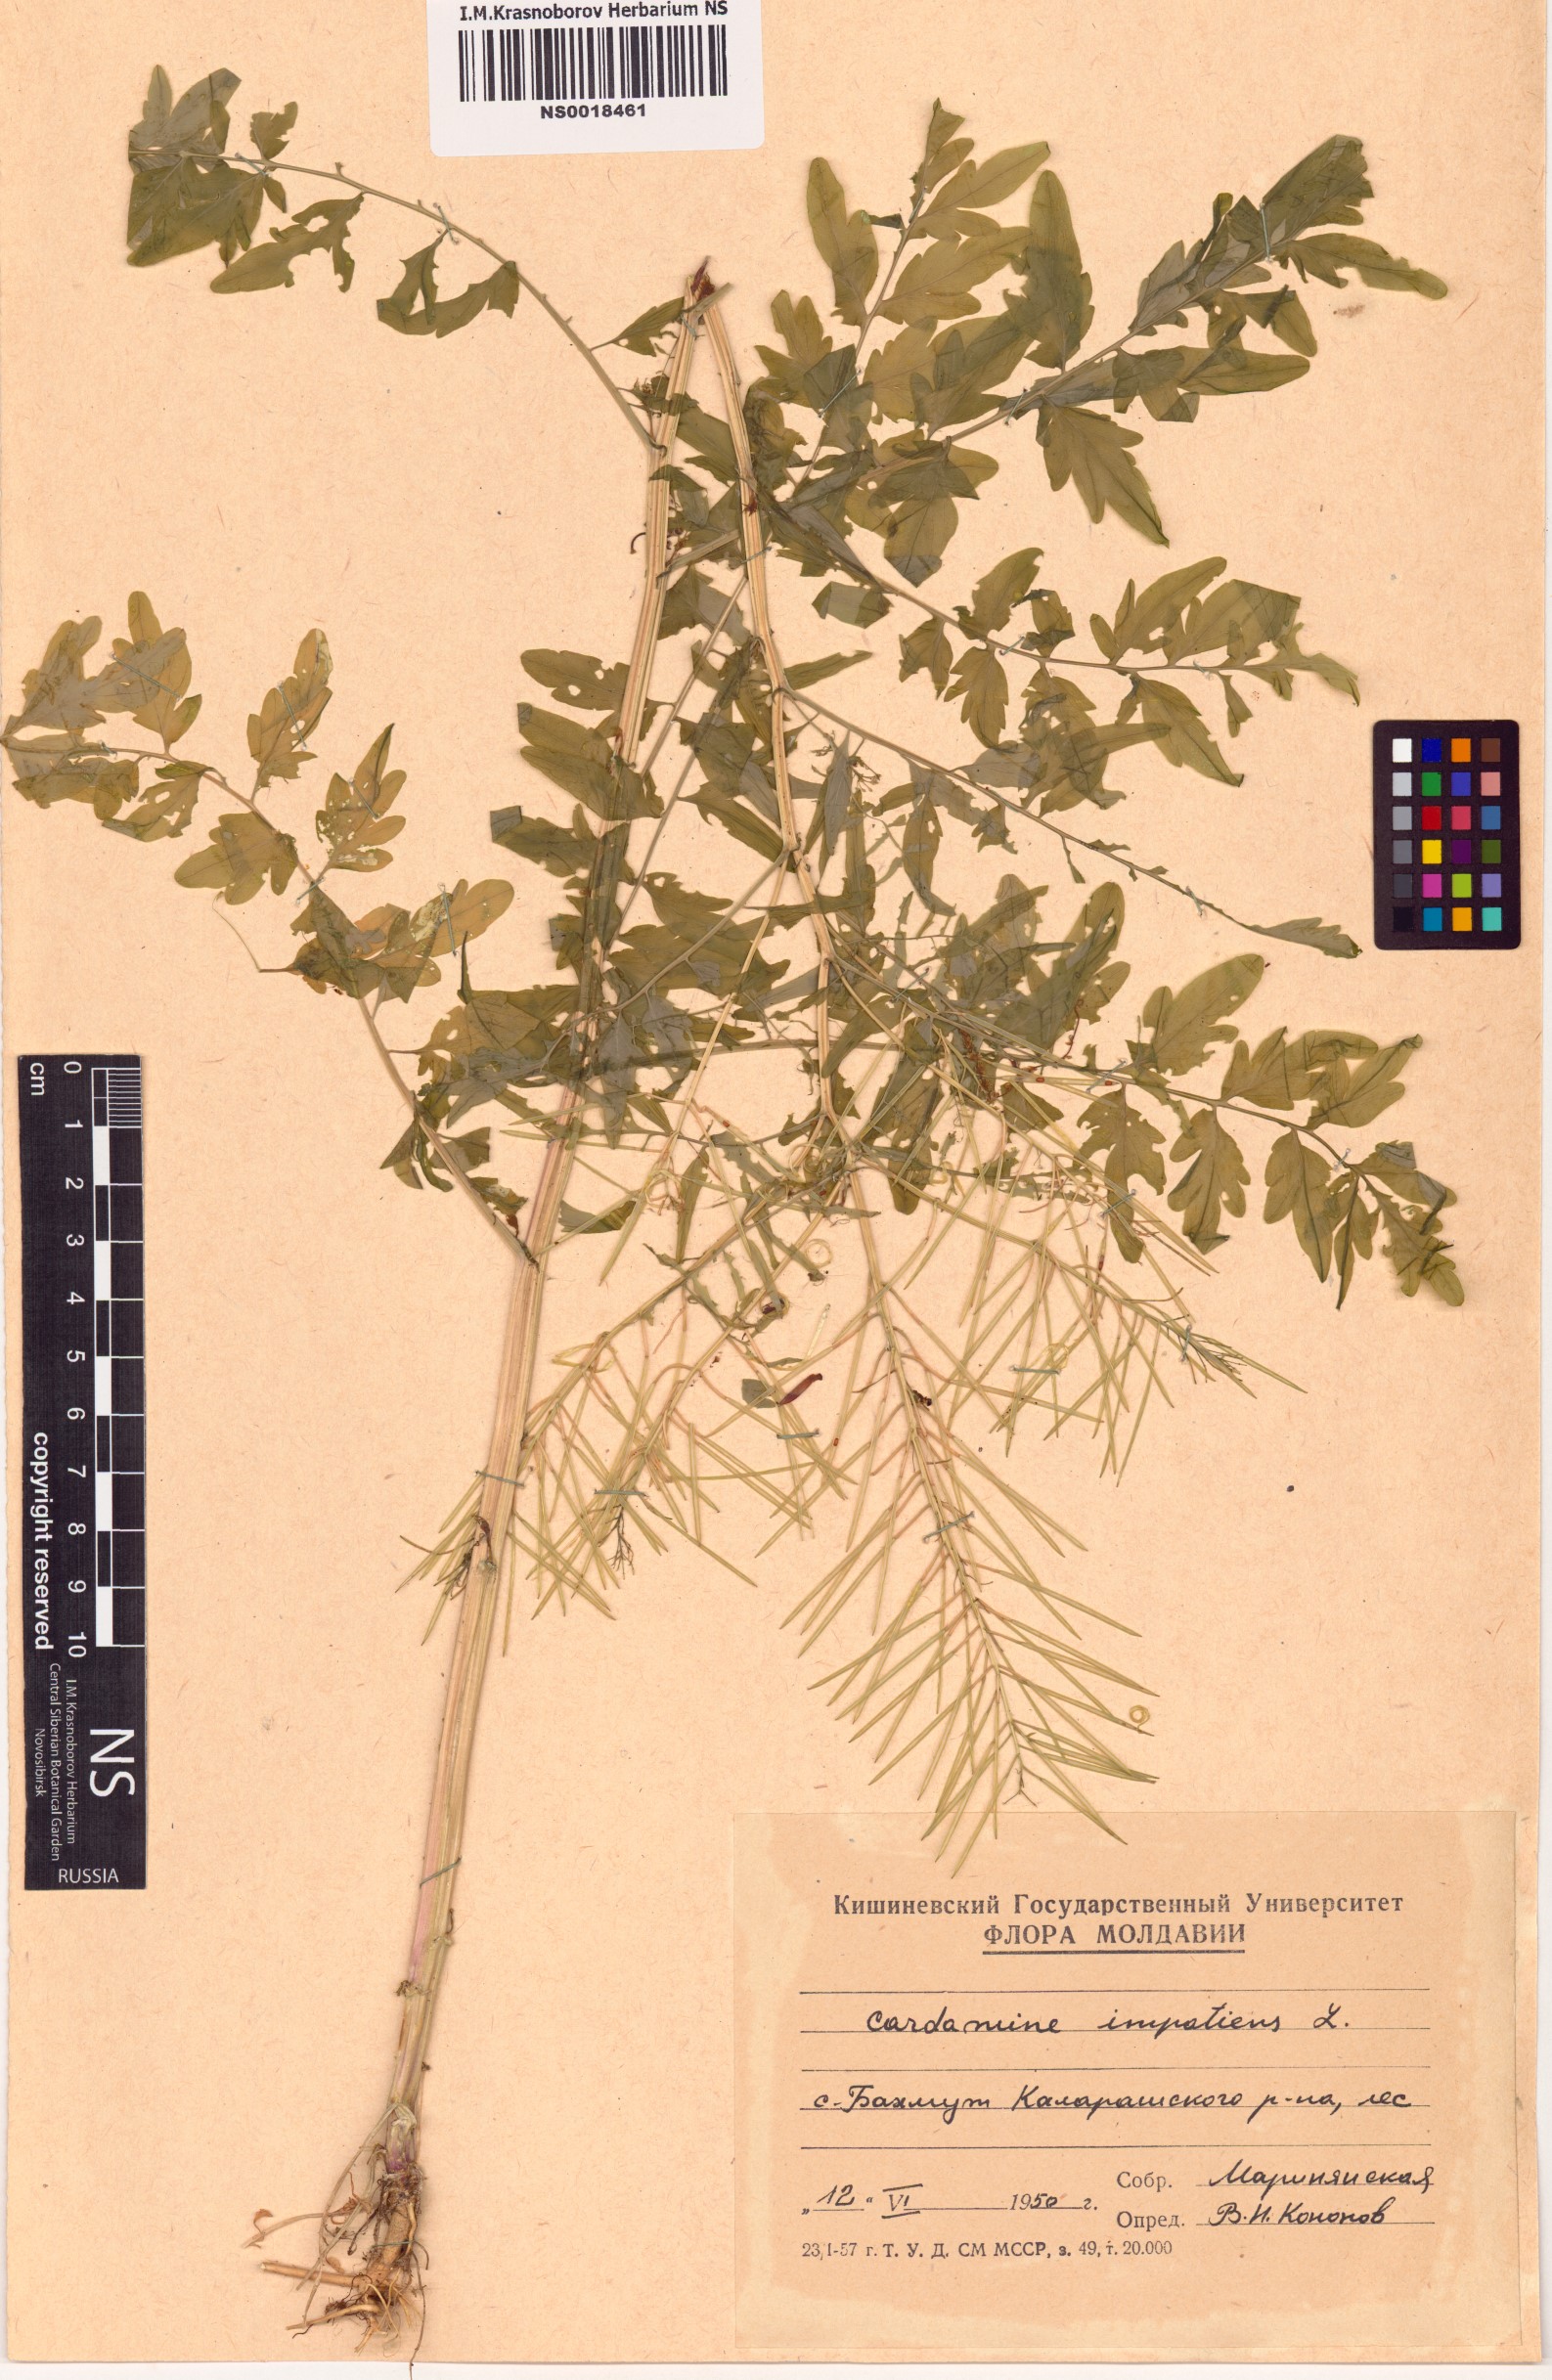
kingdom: Plantae
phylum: Tracheophyta
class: Magnoliopsida
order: Brassicales
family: Brassicaceae
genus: Cardamine
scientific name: Cardamine impatiens
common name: Narrow-leaved bitter-cress
